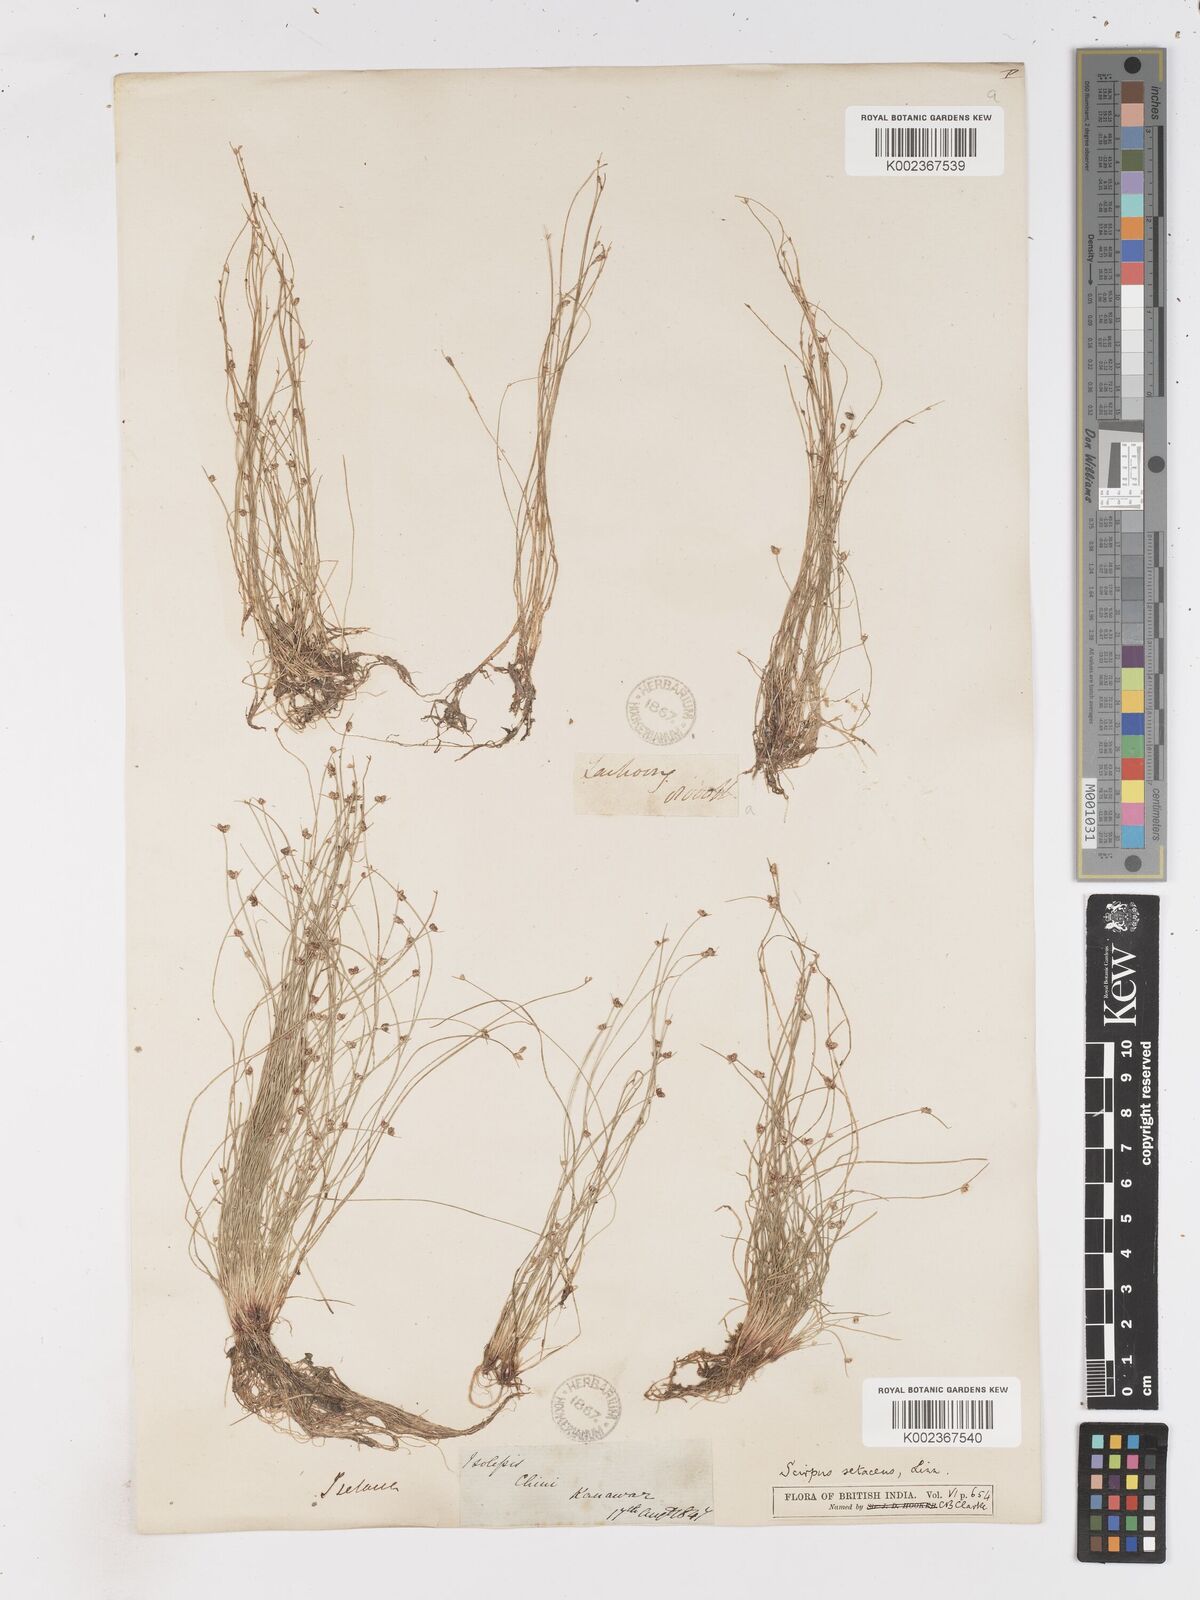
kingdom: Plantae
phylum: Tracheophyta
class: Liliopsida
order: Poales
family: Cyperaceae
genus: Isolepis
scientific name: Isolepis setacea
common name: Bristle club-rush
